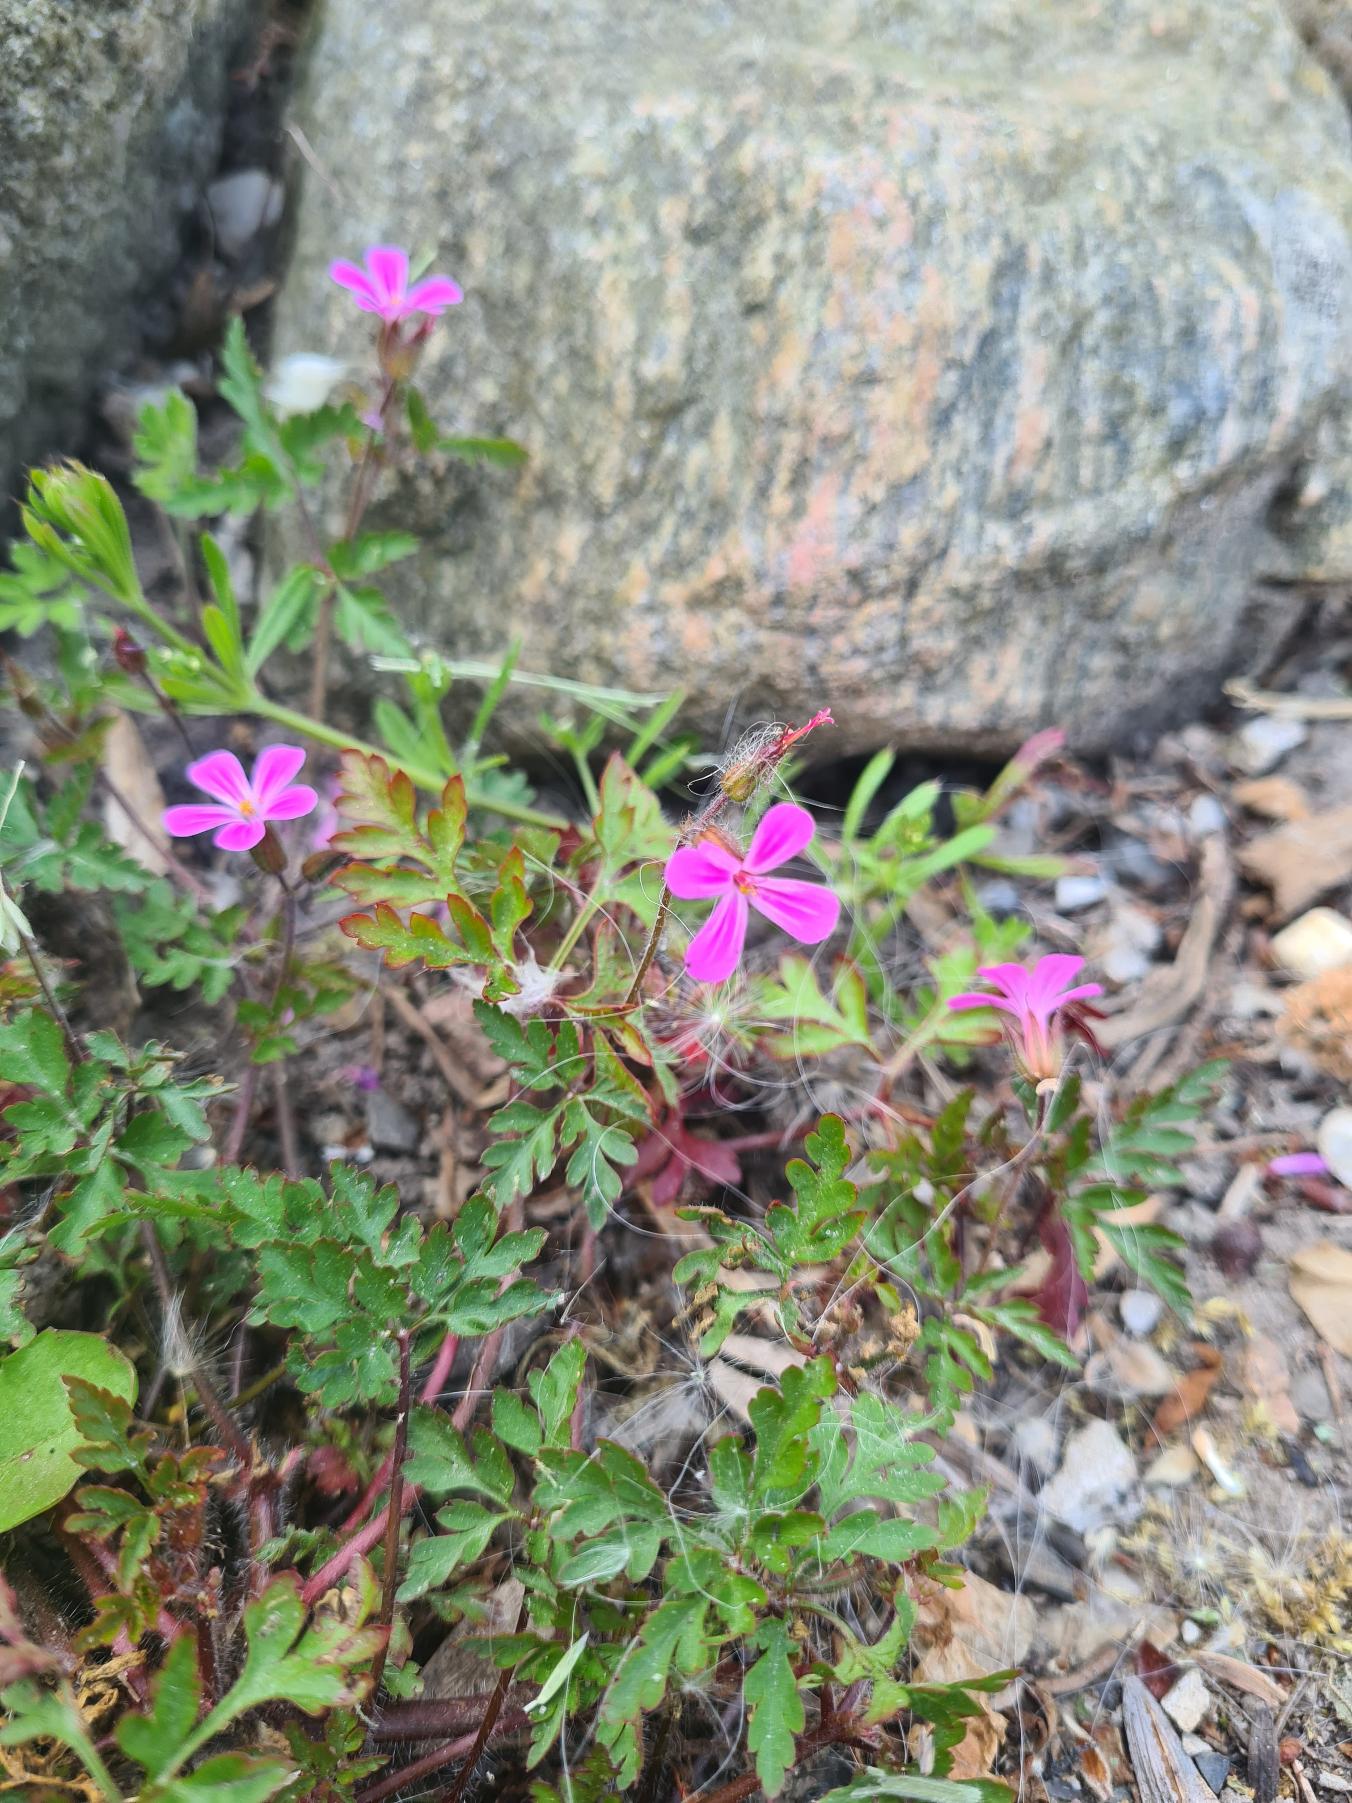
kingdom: Plantae
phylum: Tracheophyta
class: Magnoliopsida
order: Geraniales
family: Geraniaceae
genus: Geranium
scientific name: Geranium robertianum
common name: Stinkende storkenæb
